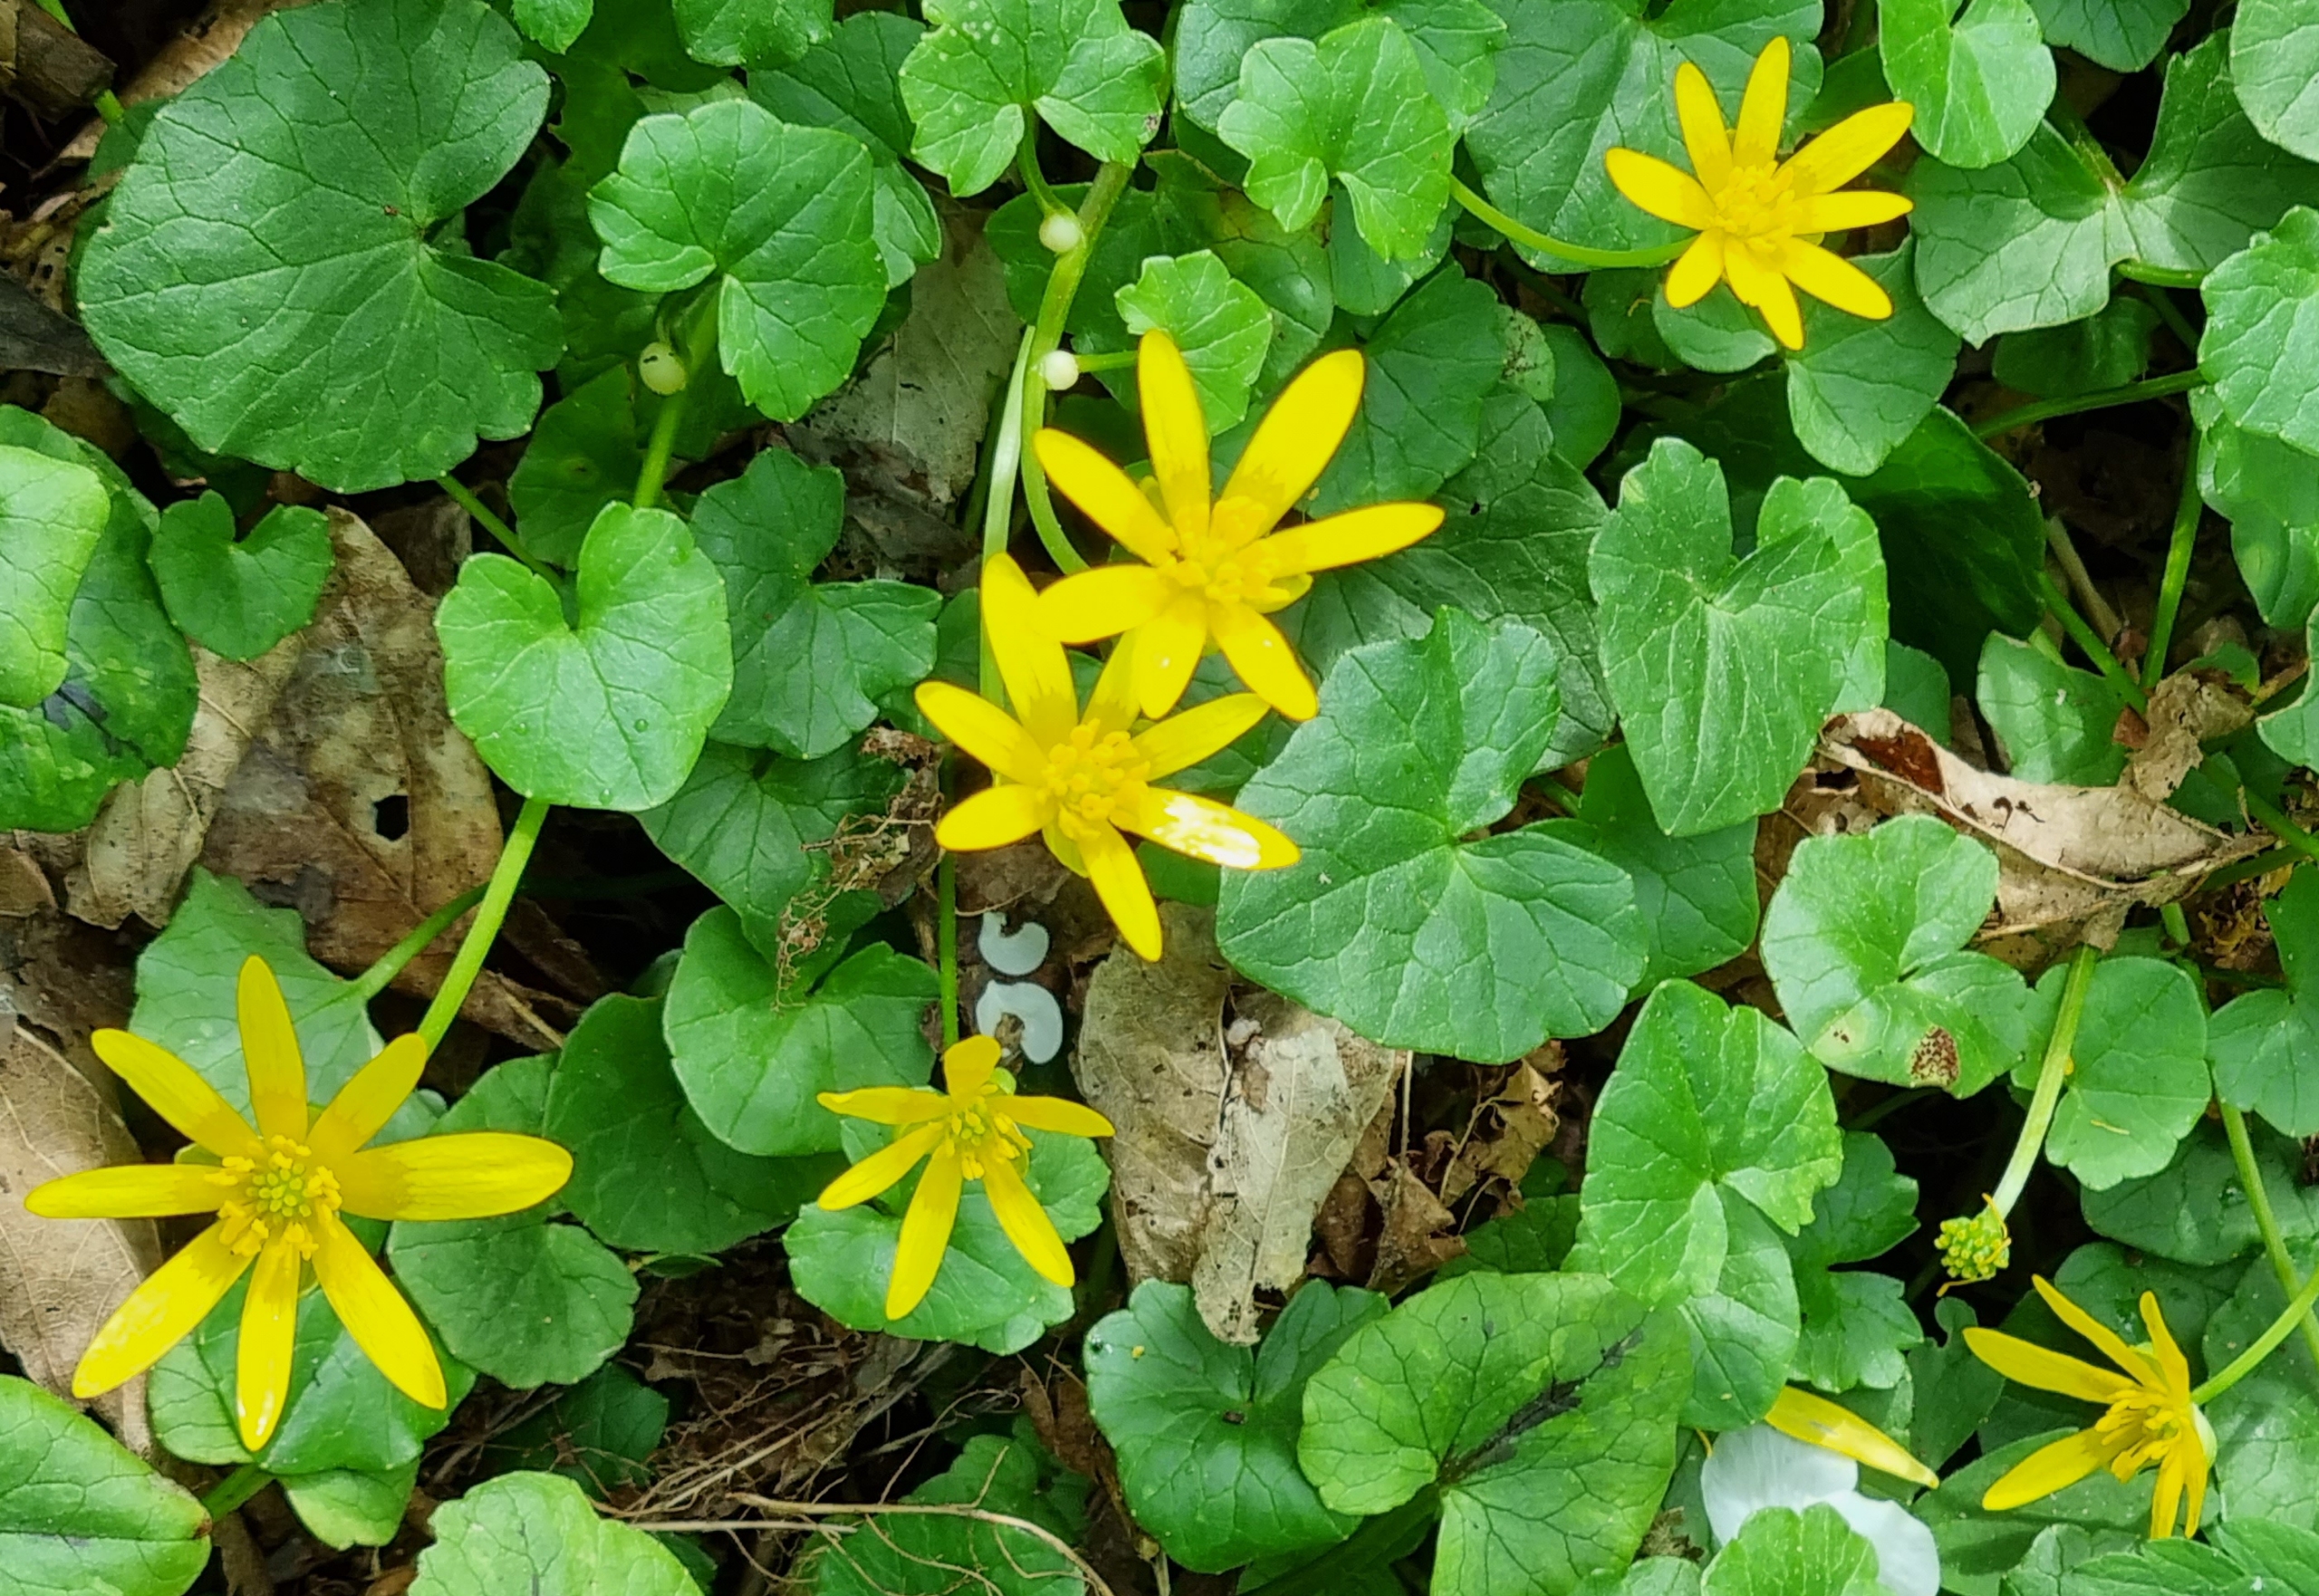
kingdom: Plantae
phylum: Tracheophyta
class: Magnoliopsida
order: Ranunculales
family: Ranunculaceae
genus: Ficaria
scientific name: Ficaria verna
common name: Vorterod
